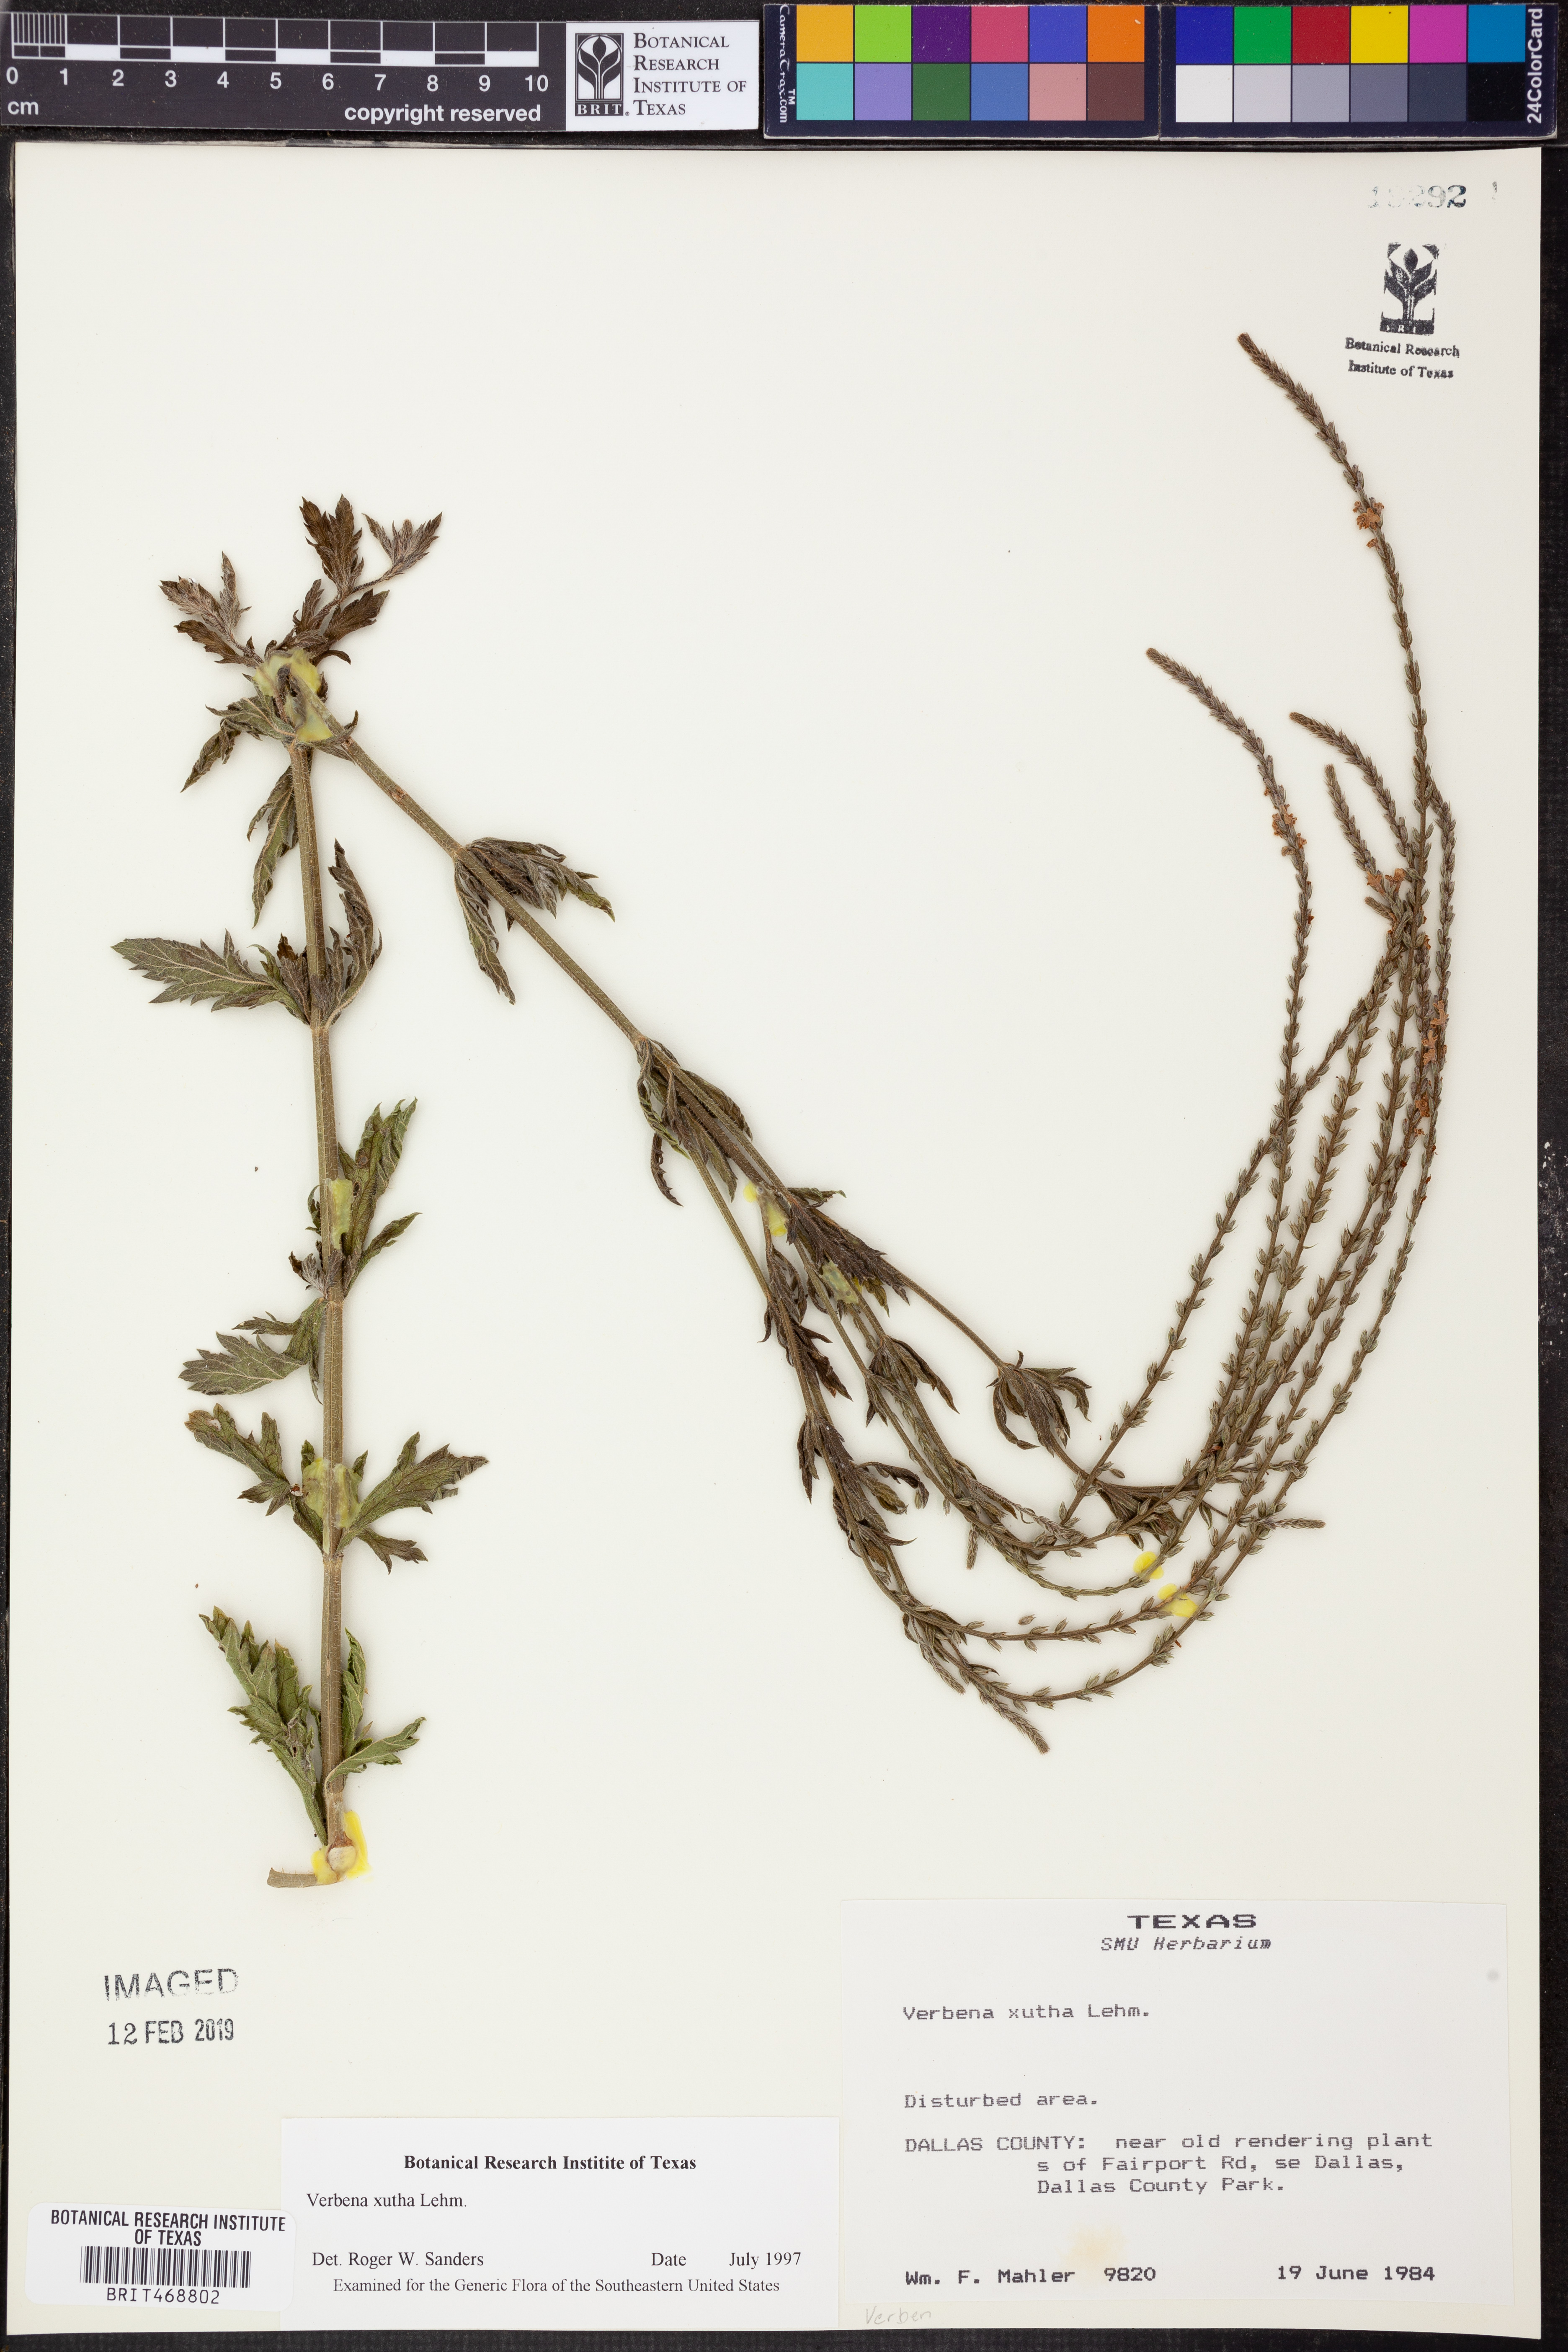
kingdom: Plantae
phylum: Tracheophyta
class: Magnoliopsida
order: Lamiales
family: Verbenaceae
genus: Verbena
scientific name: Verbena xutha
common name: Gulf vervain
